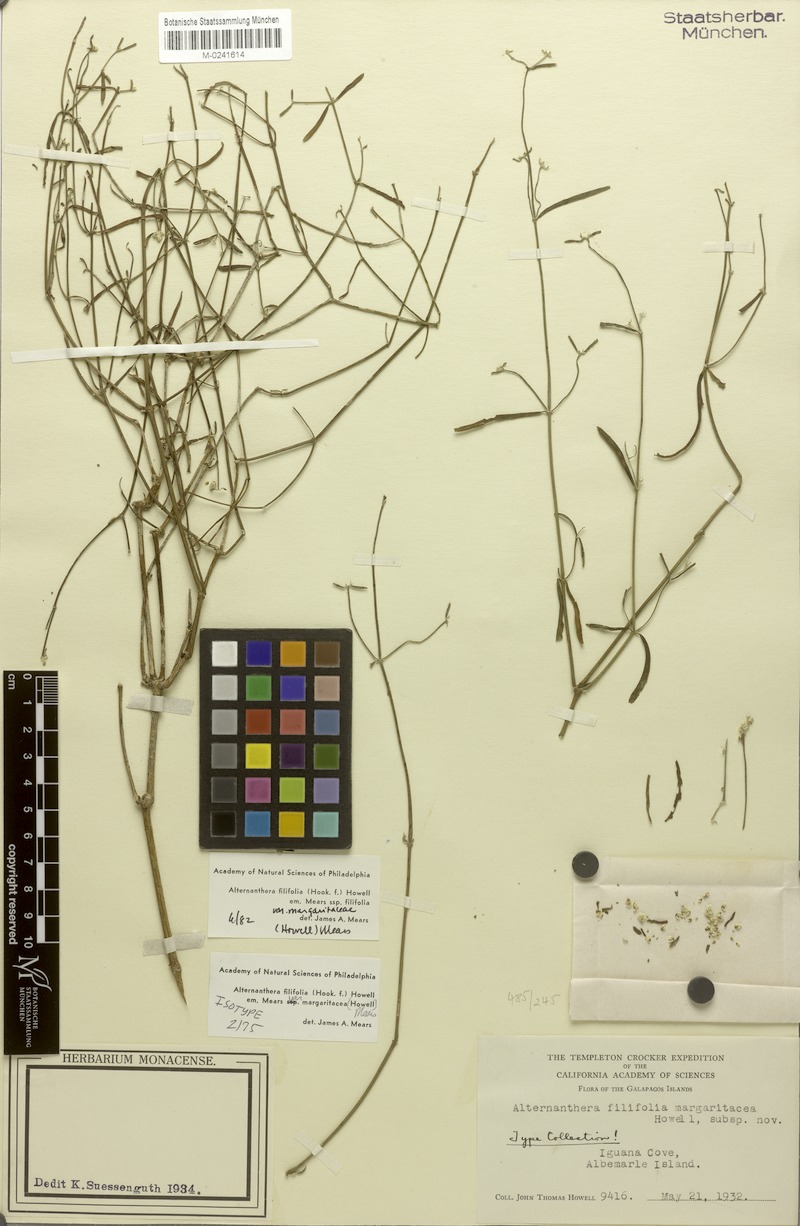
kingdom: Plantae
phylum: Tracheophyta
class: Magnoliopsida
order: Caryophyllales
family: Amaranthaceae
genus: Alternanthera
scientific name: Alternanthera filifolia
